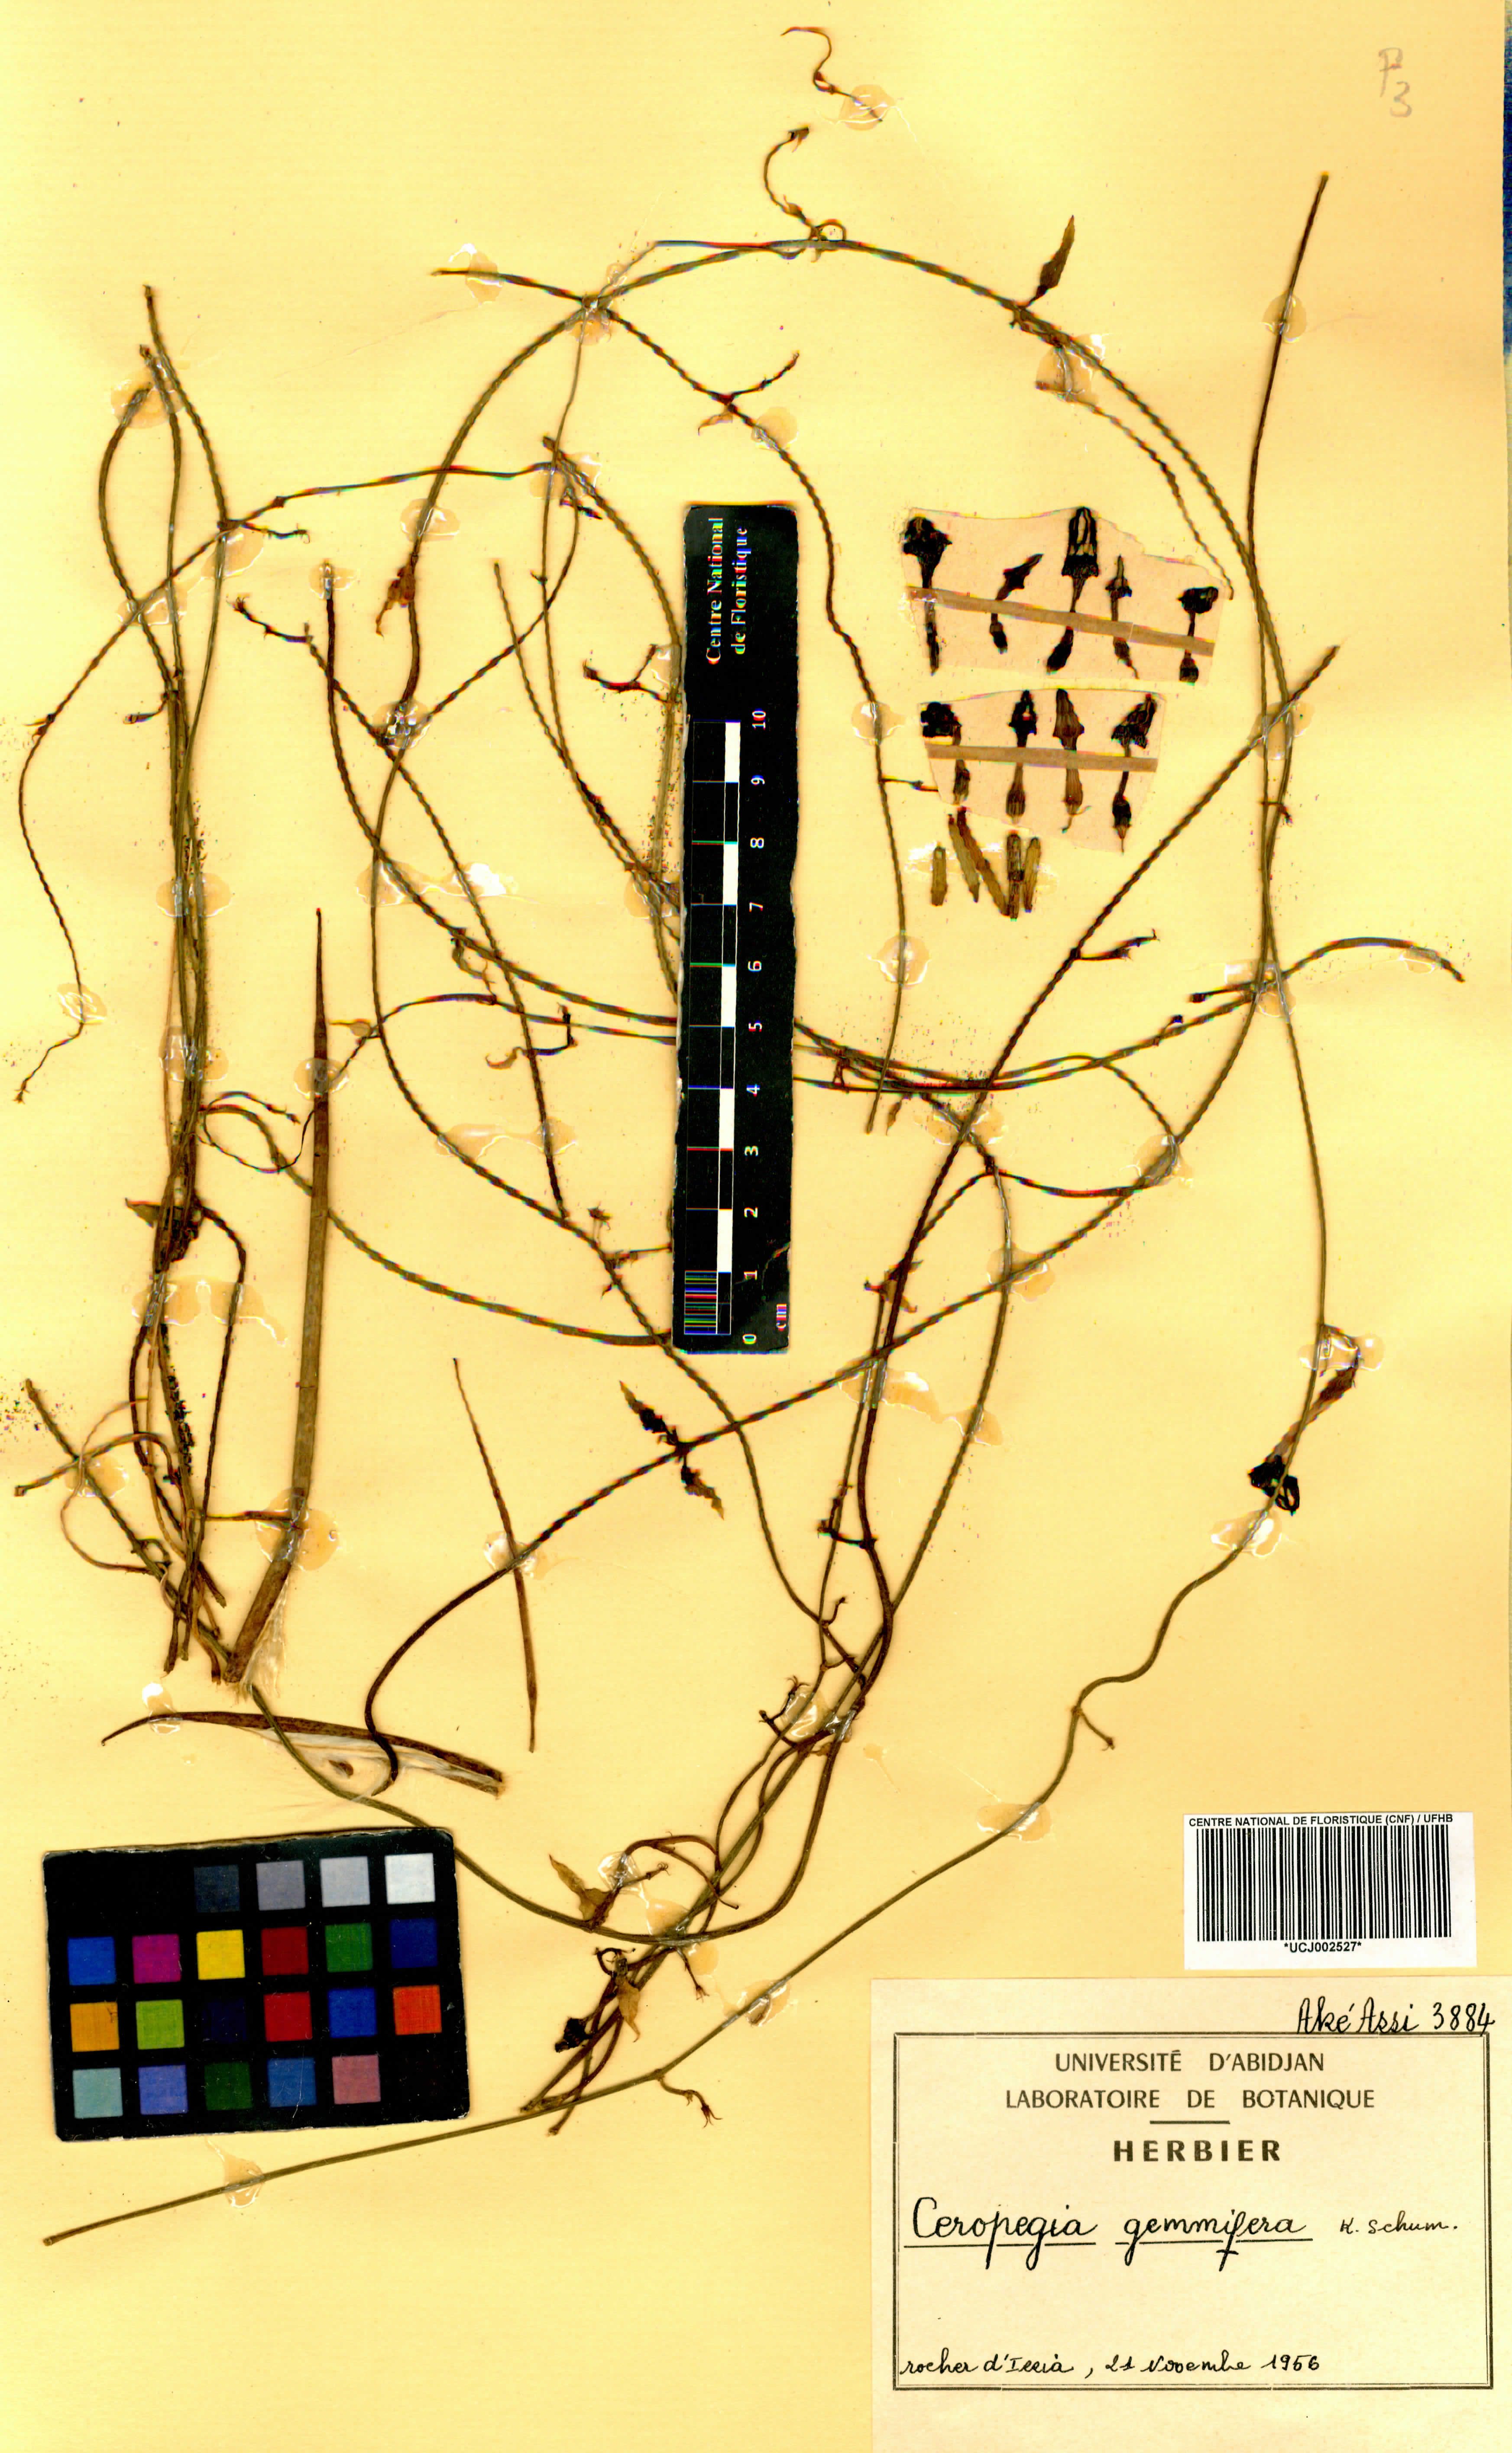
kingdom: Plantae
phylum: Tracheophyta
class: Magnoliopsida
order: Gentianales
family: Apocynaceae
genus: Ceropegia
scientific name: Ceropegia nilotica
